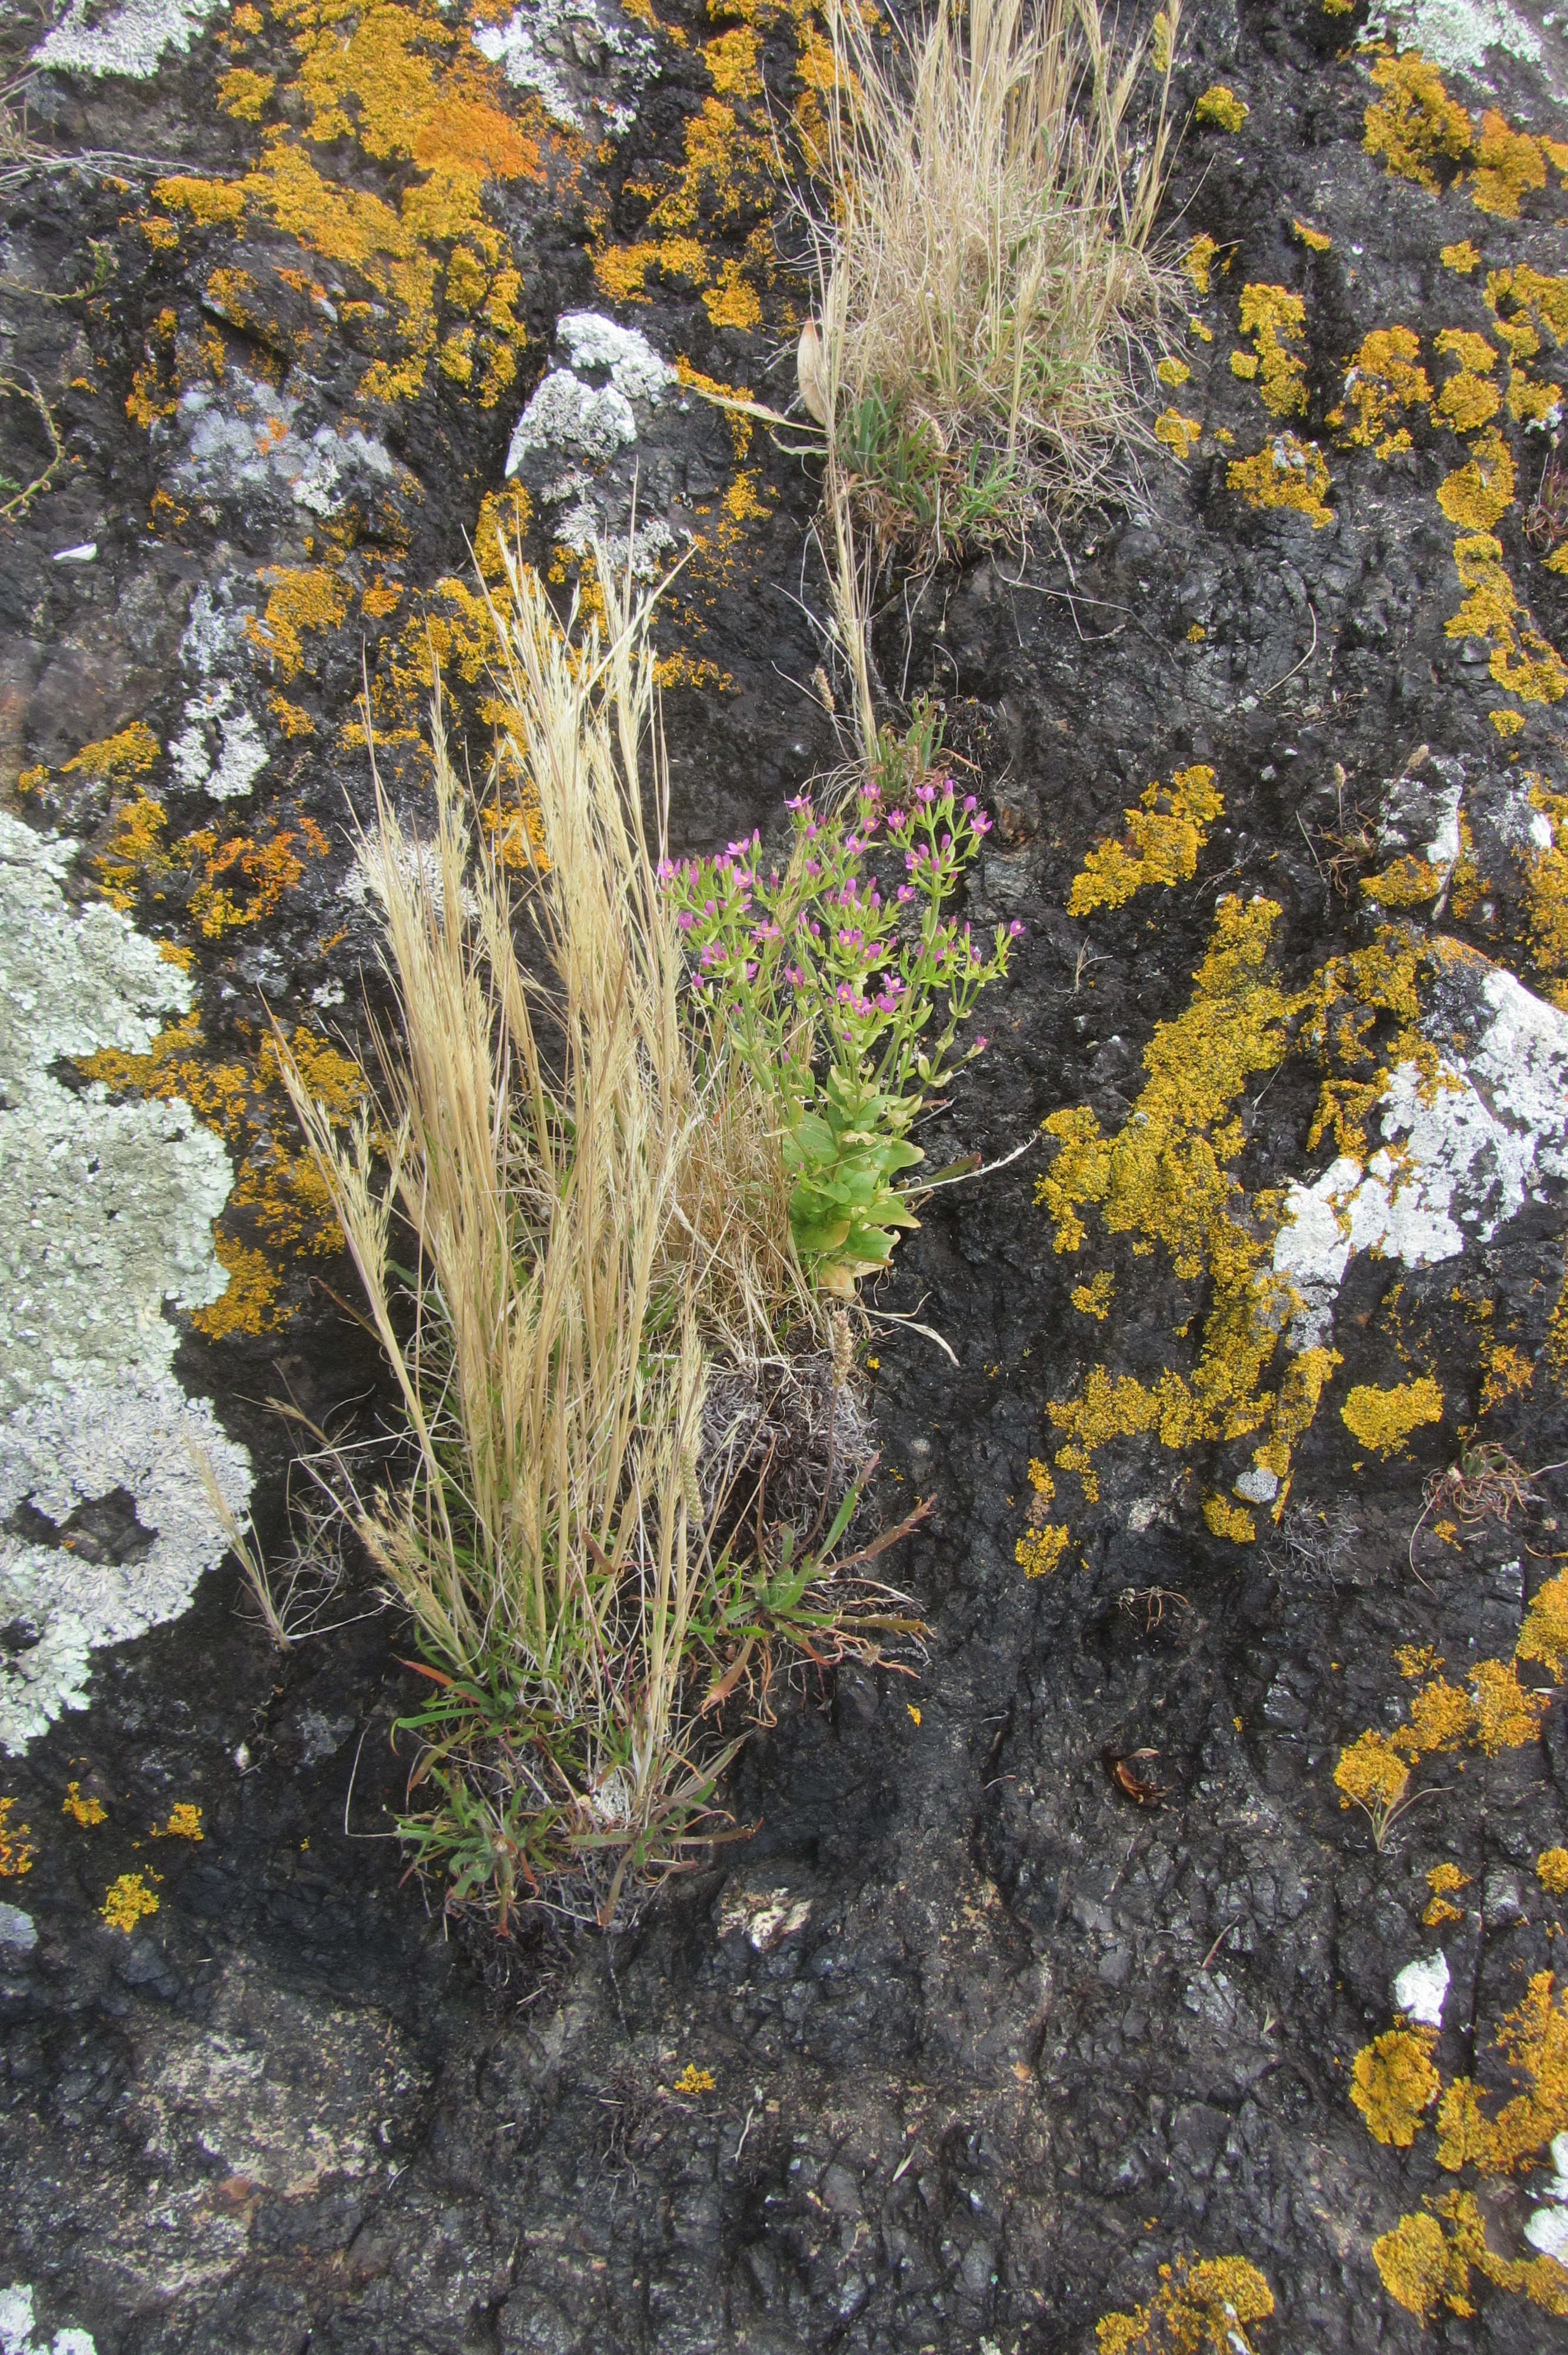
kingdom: Plantae
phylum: Tracheophyta
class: Liliopsida
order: Poales
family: Poaceae
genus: Lachnagrostis
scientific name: Lachnagrostis littoralis
